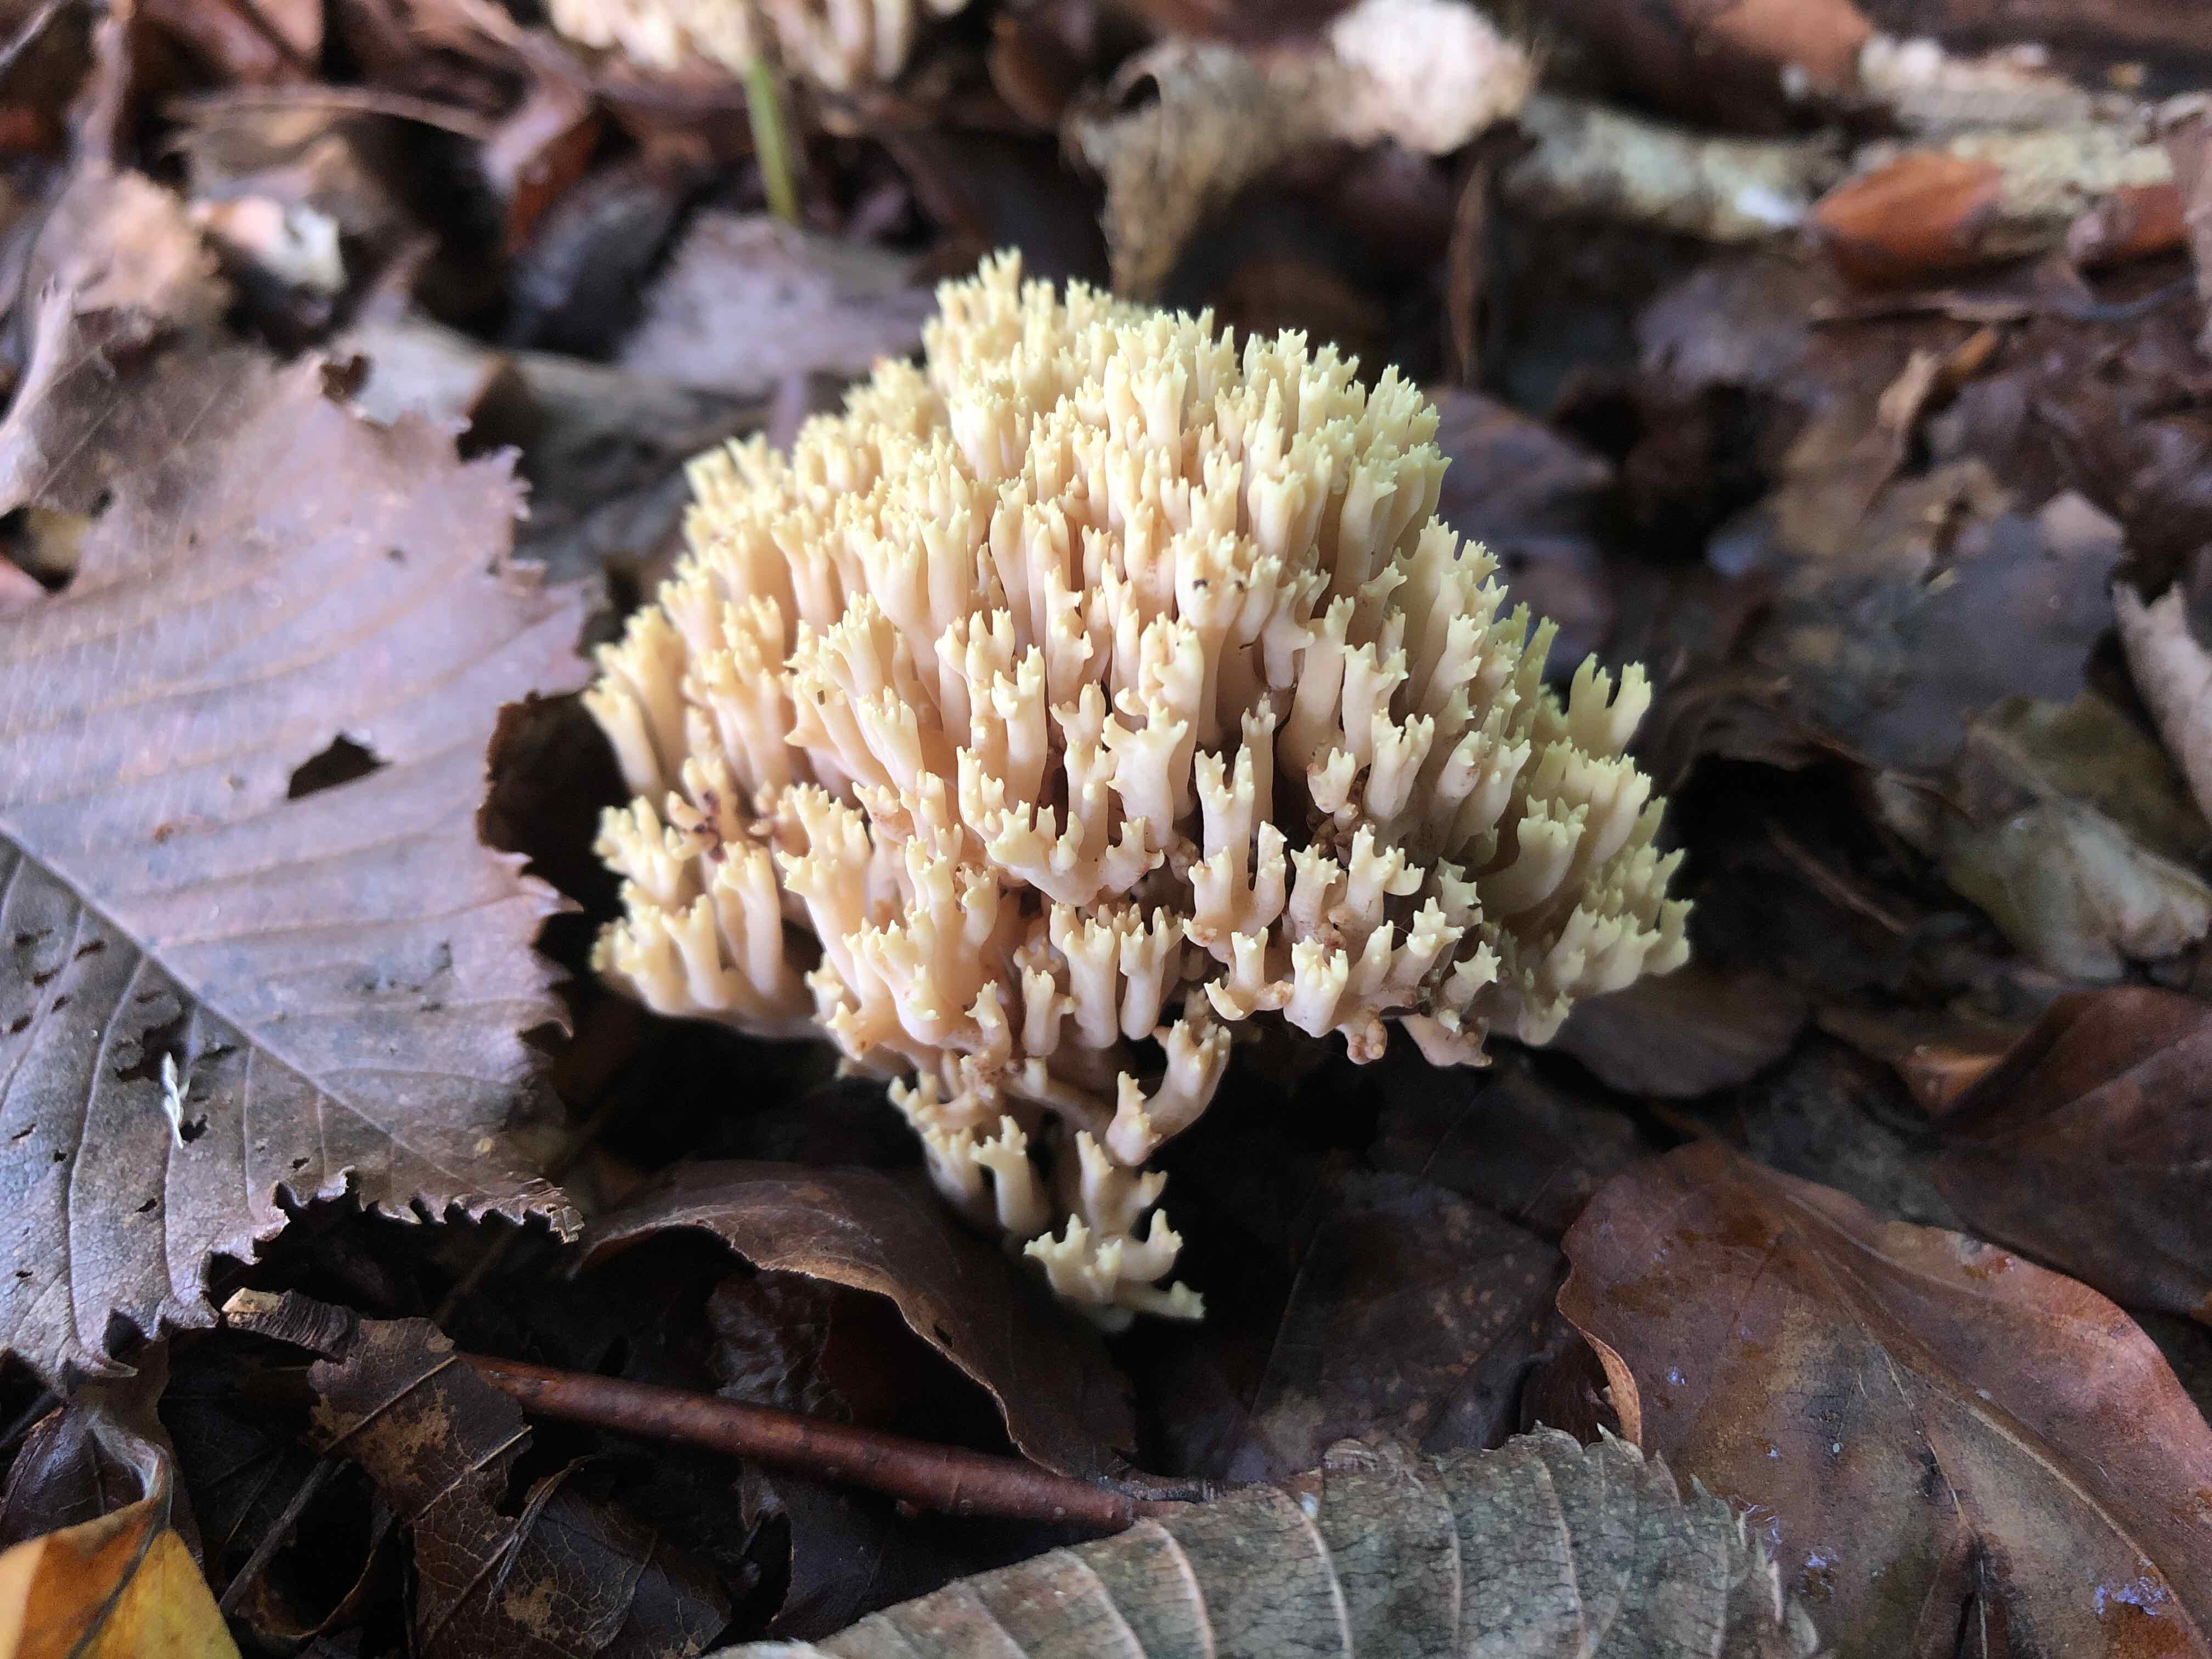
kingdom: Fungi
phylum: Basidiomycota
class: Agaricomycetes
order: Gomphales
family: Gomphaceae
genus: Ramaria
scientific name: Ramaria stricta
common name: rank koralsvamp
